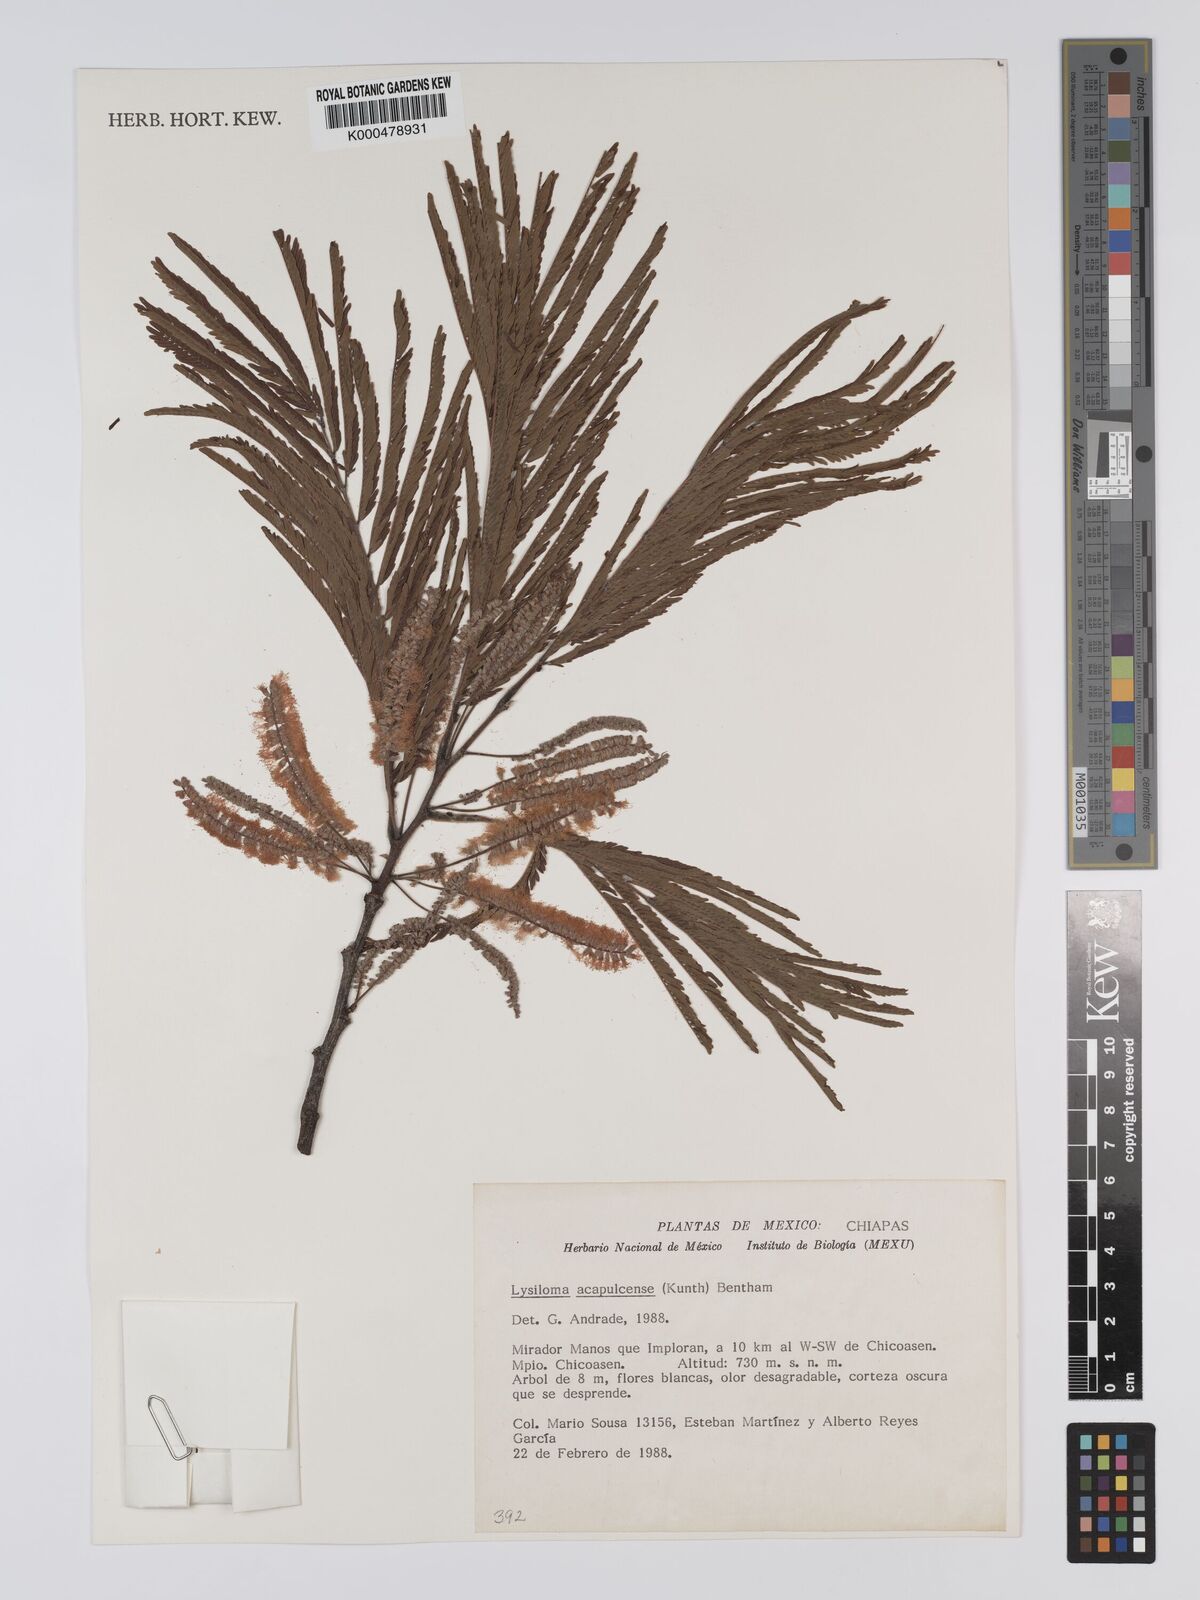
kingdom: Plantae
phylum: Tracheophyta
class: Magnoliopsida
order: Fabales
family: Fabaceae
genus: Lysiloma
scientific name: Lysiloma
